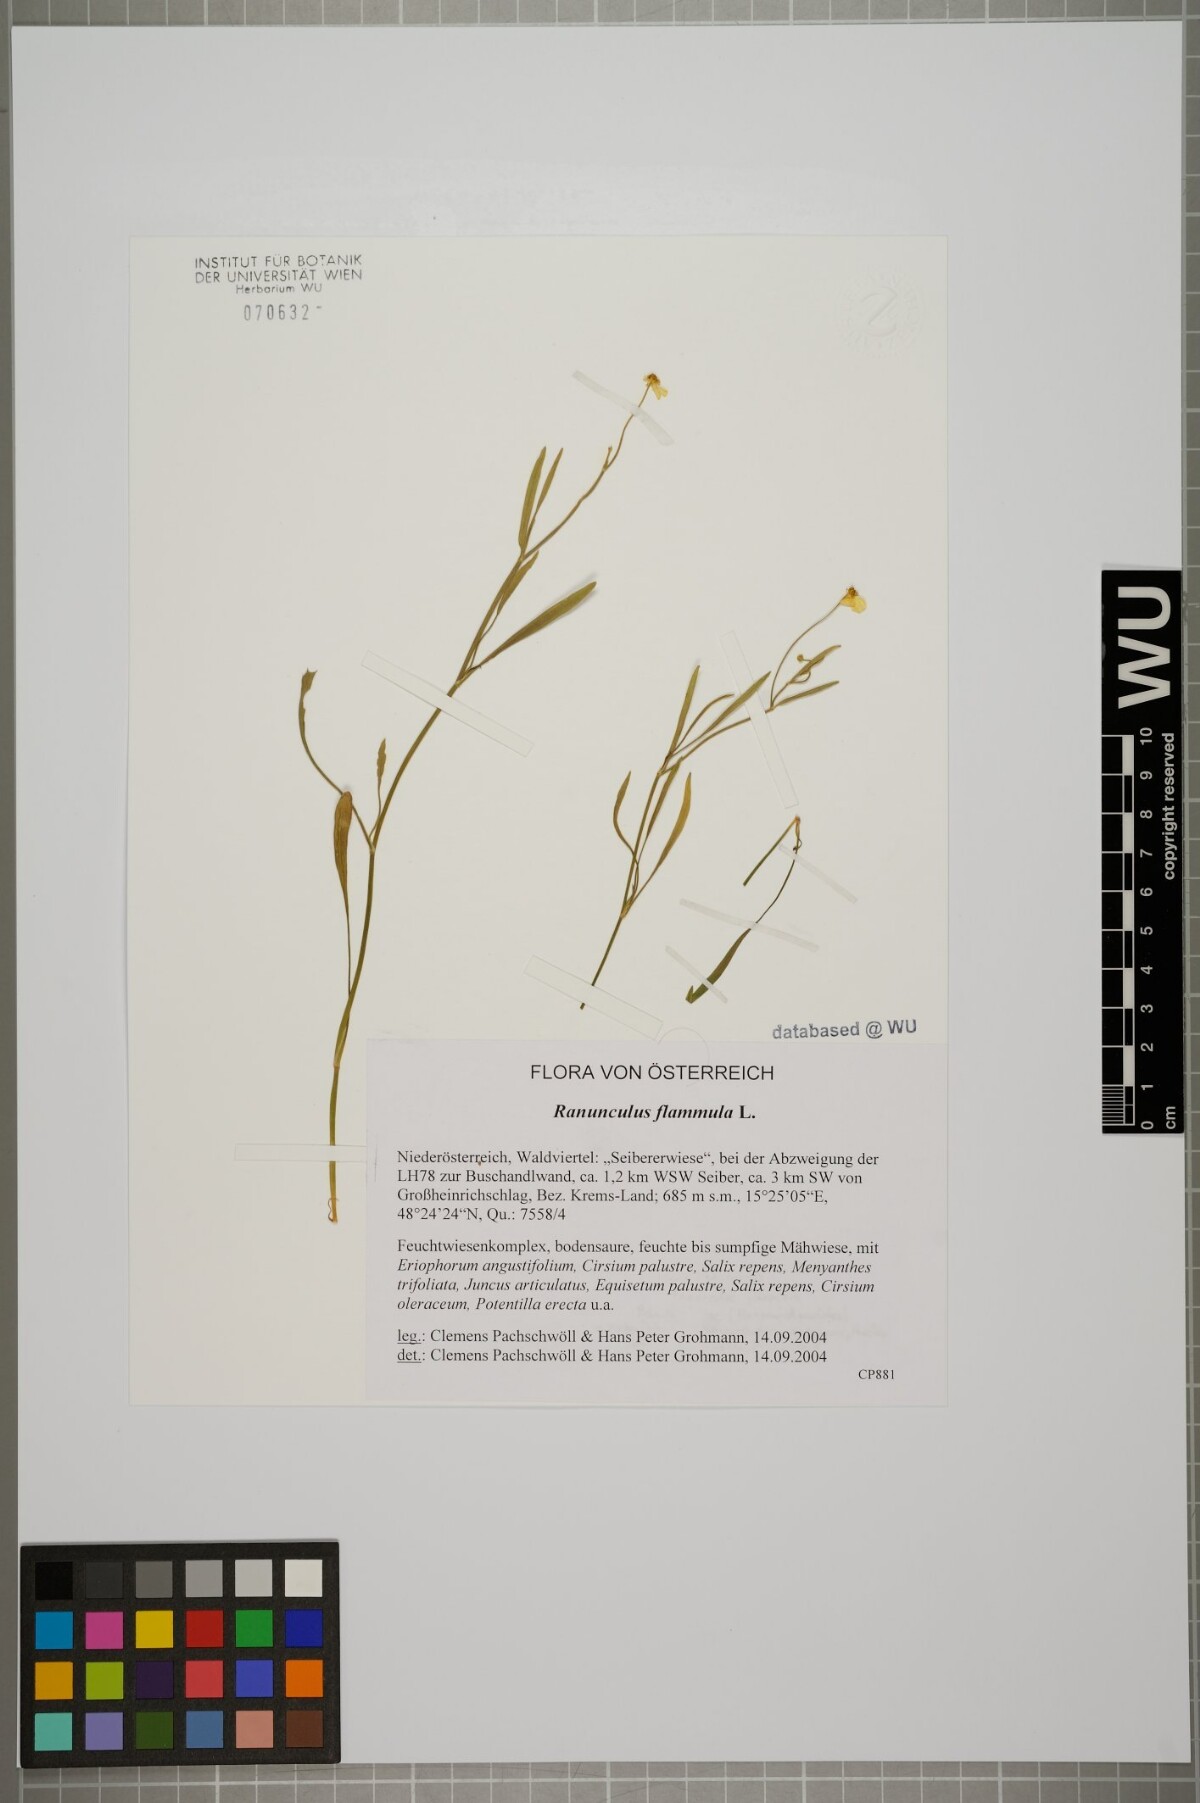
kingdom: Plantae
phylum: Tracheophyta
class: Magnoliopsida
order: Ranunculales
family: Ranunculaceae
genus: Ranunculus
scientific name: Ranunculus flammula
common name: Lesser spearwort
